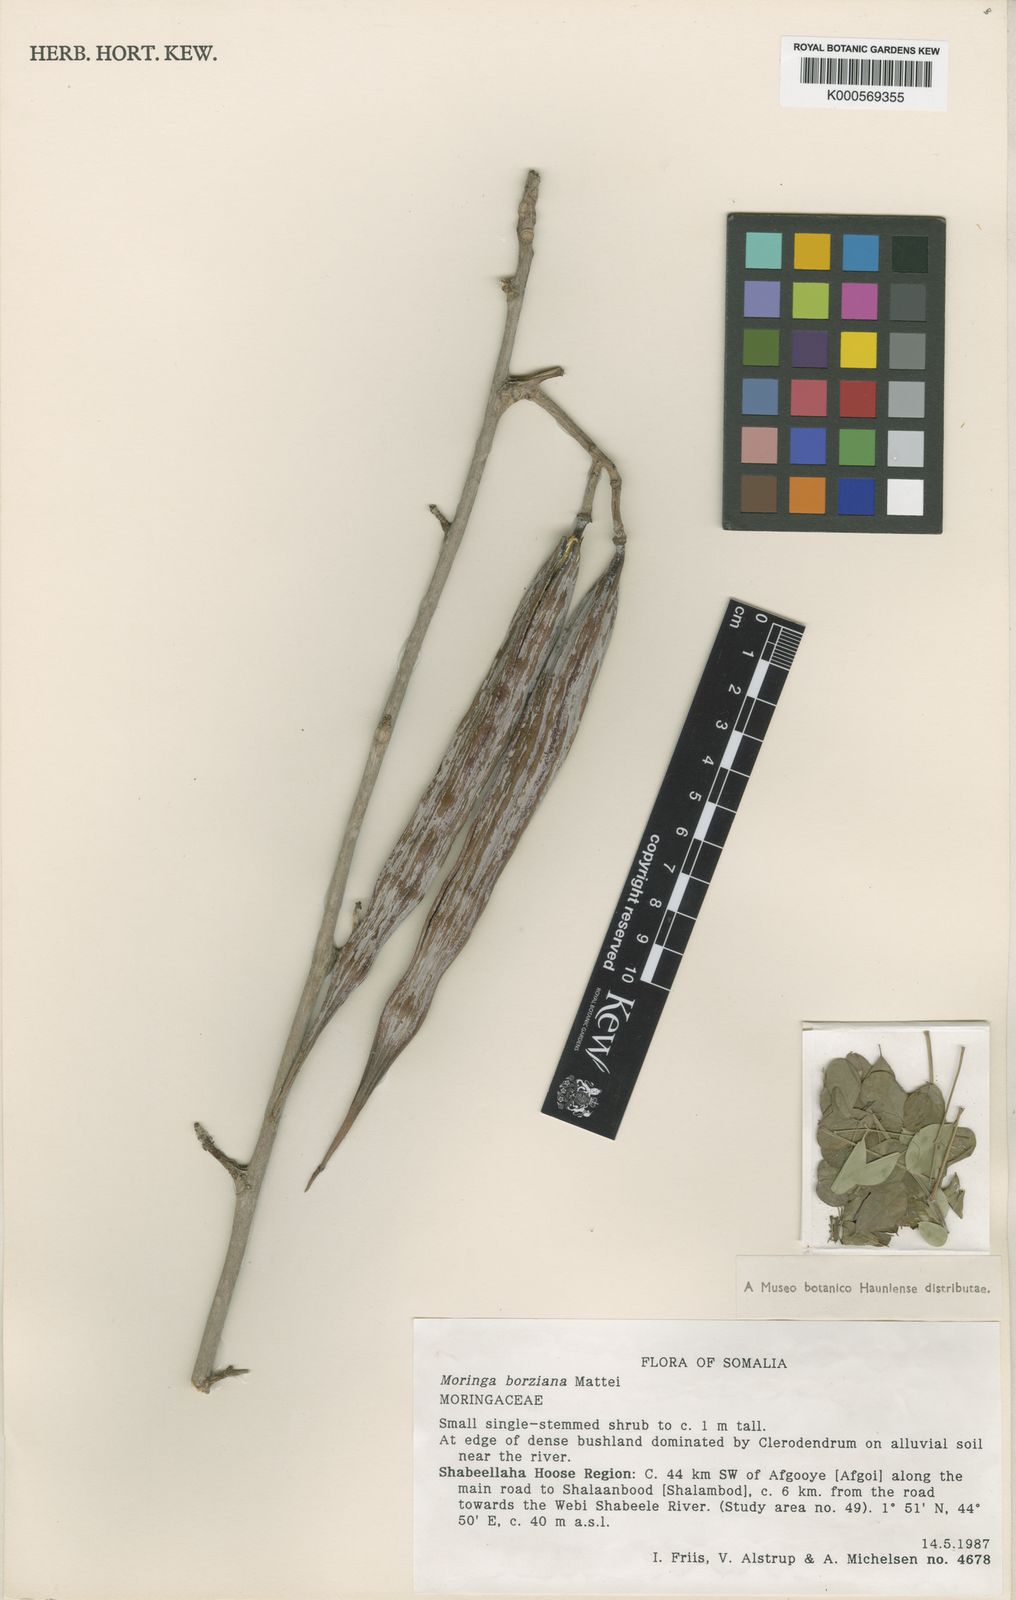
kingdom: Plantae
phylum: Tracheophyta
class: Magnoliopsida
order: Brassicales
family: Moringaceae
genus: Moringa
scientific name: Moringa borziana
